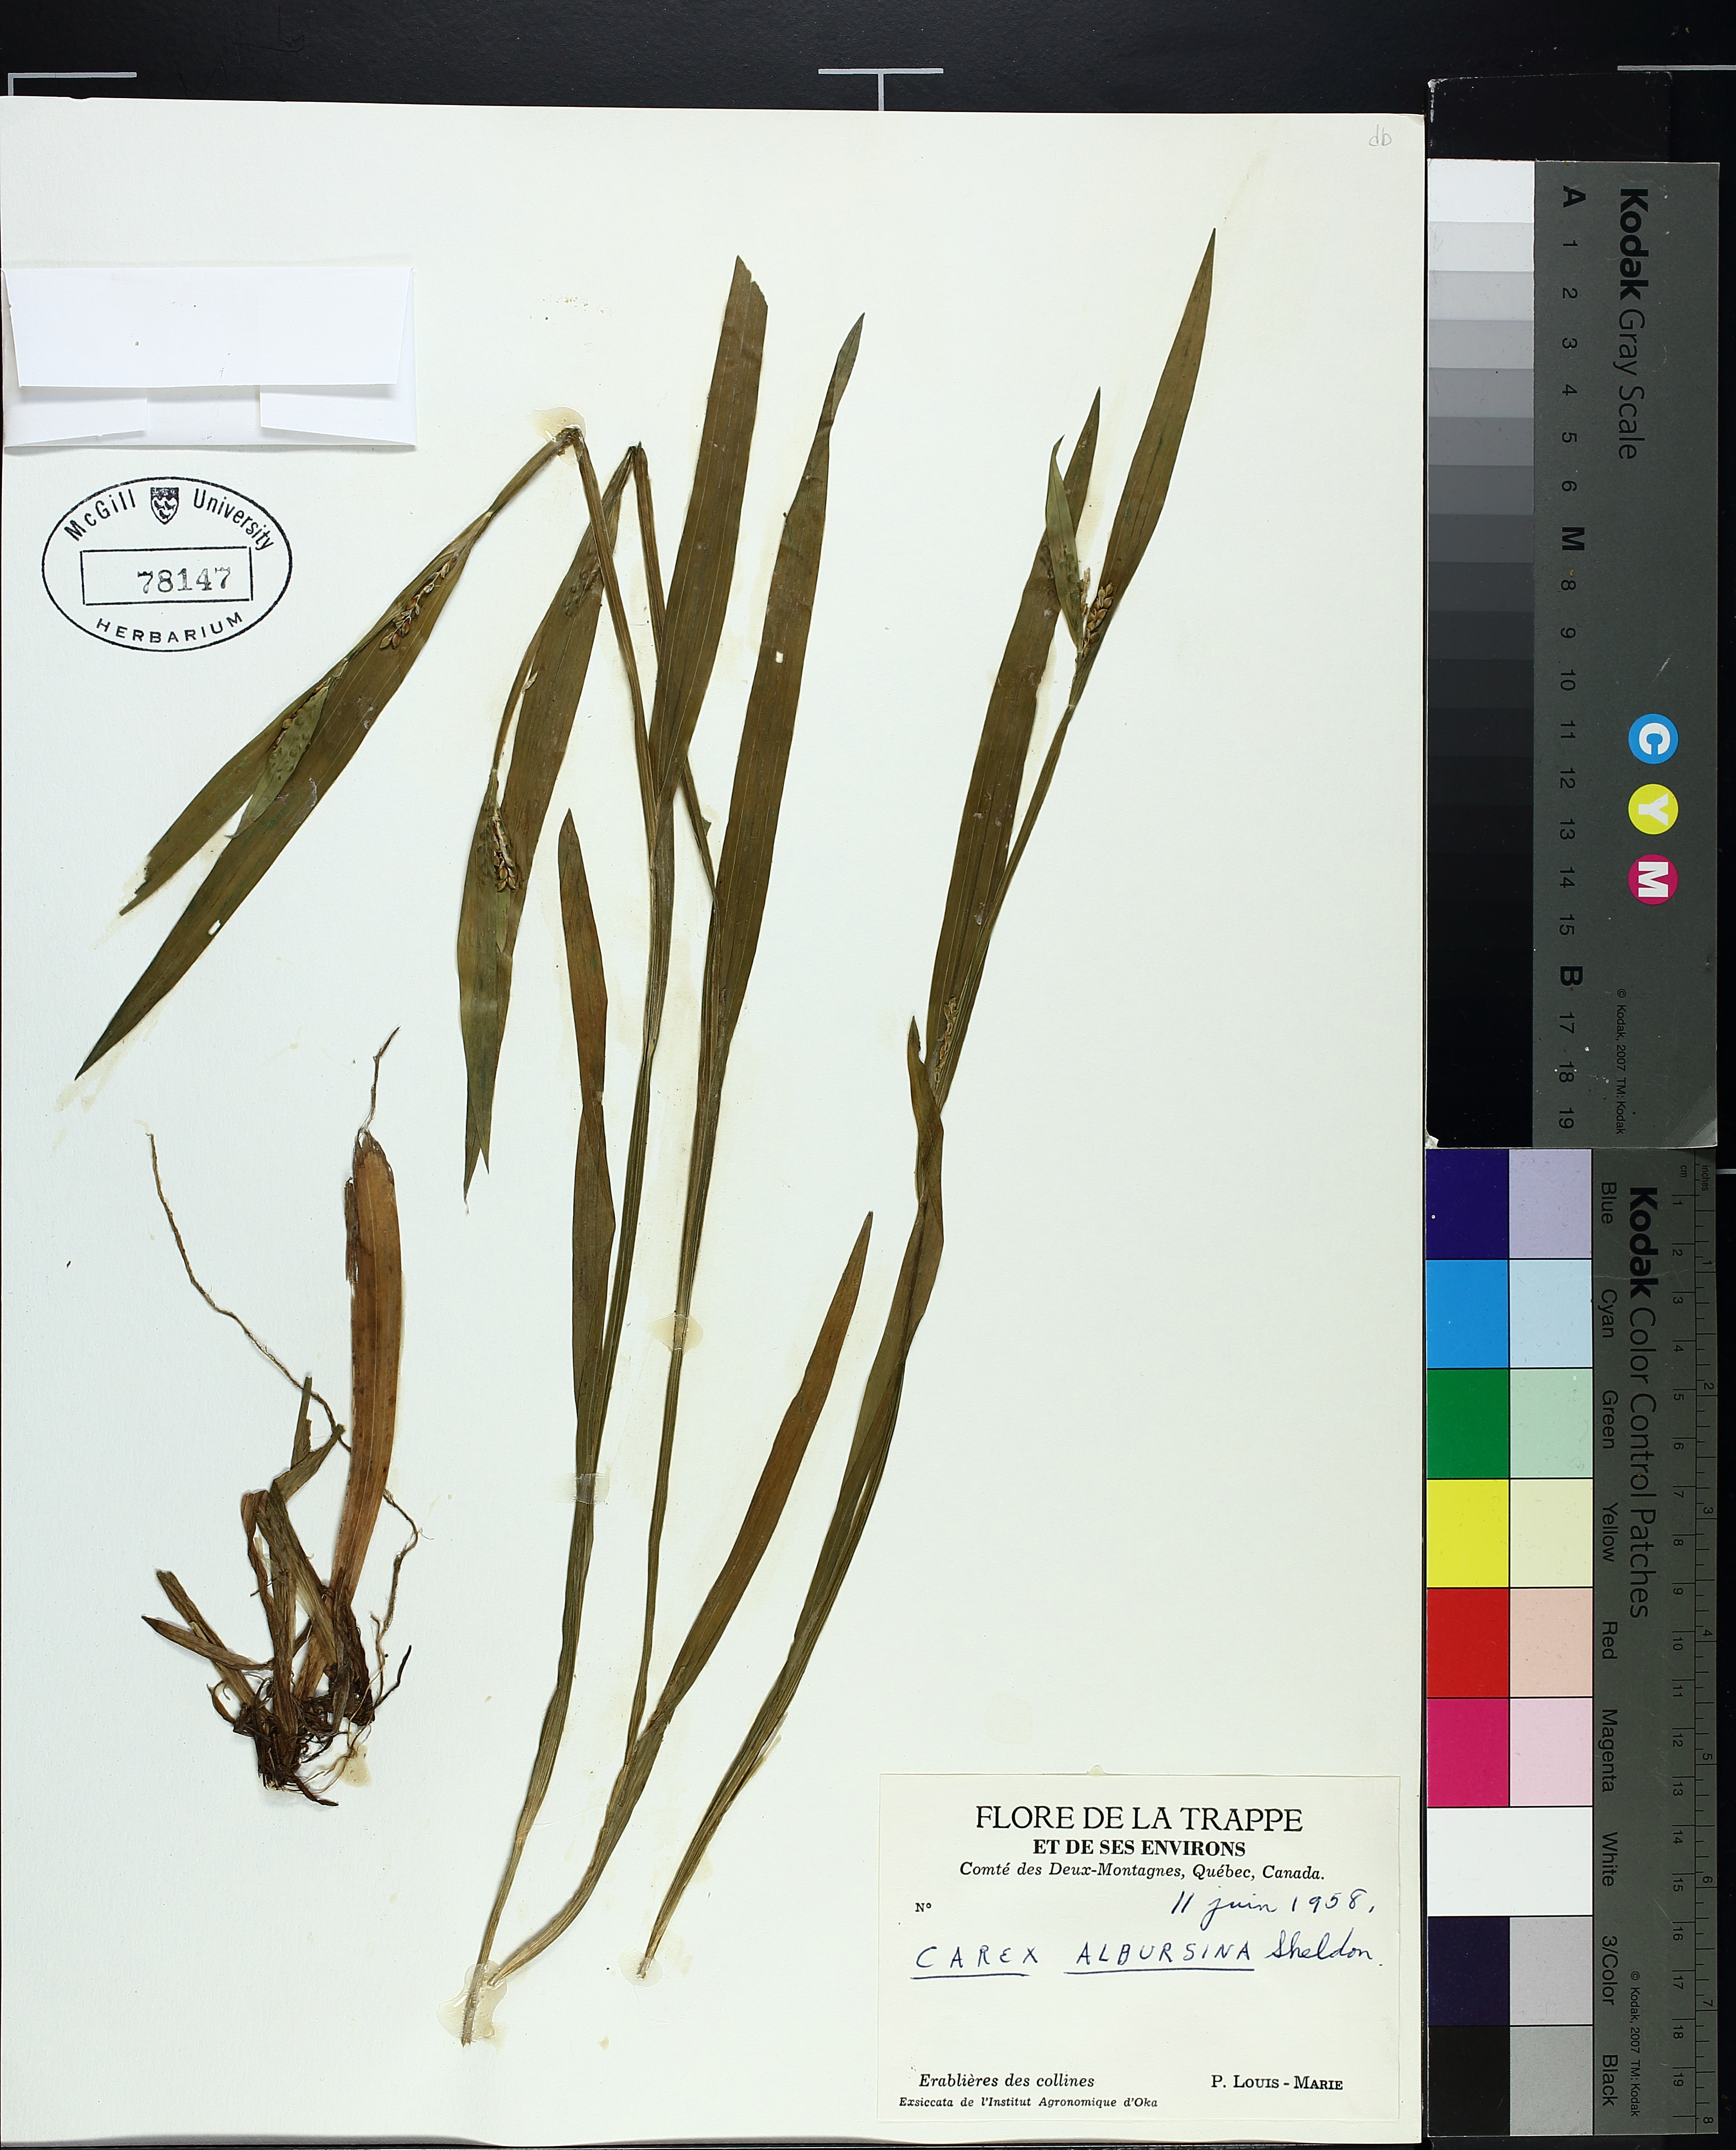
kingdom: Plantae
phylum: Tracheophyta
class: Liliopsida
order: Poales
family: Cyperaceae
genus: Carex
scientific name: Carex albursina
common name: Blunt-scale wood sedge
